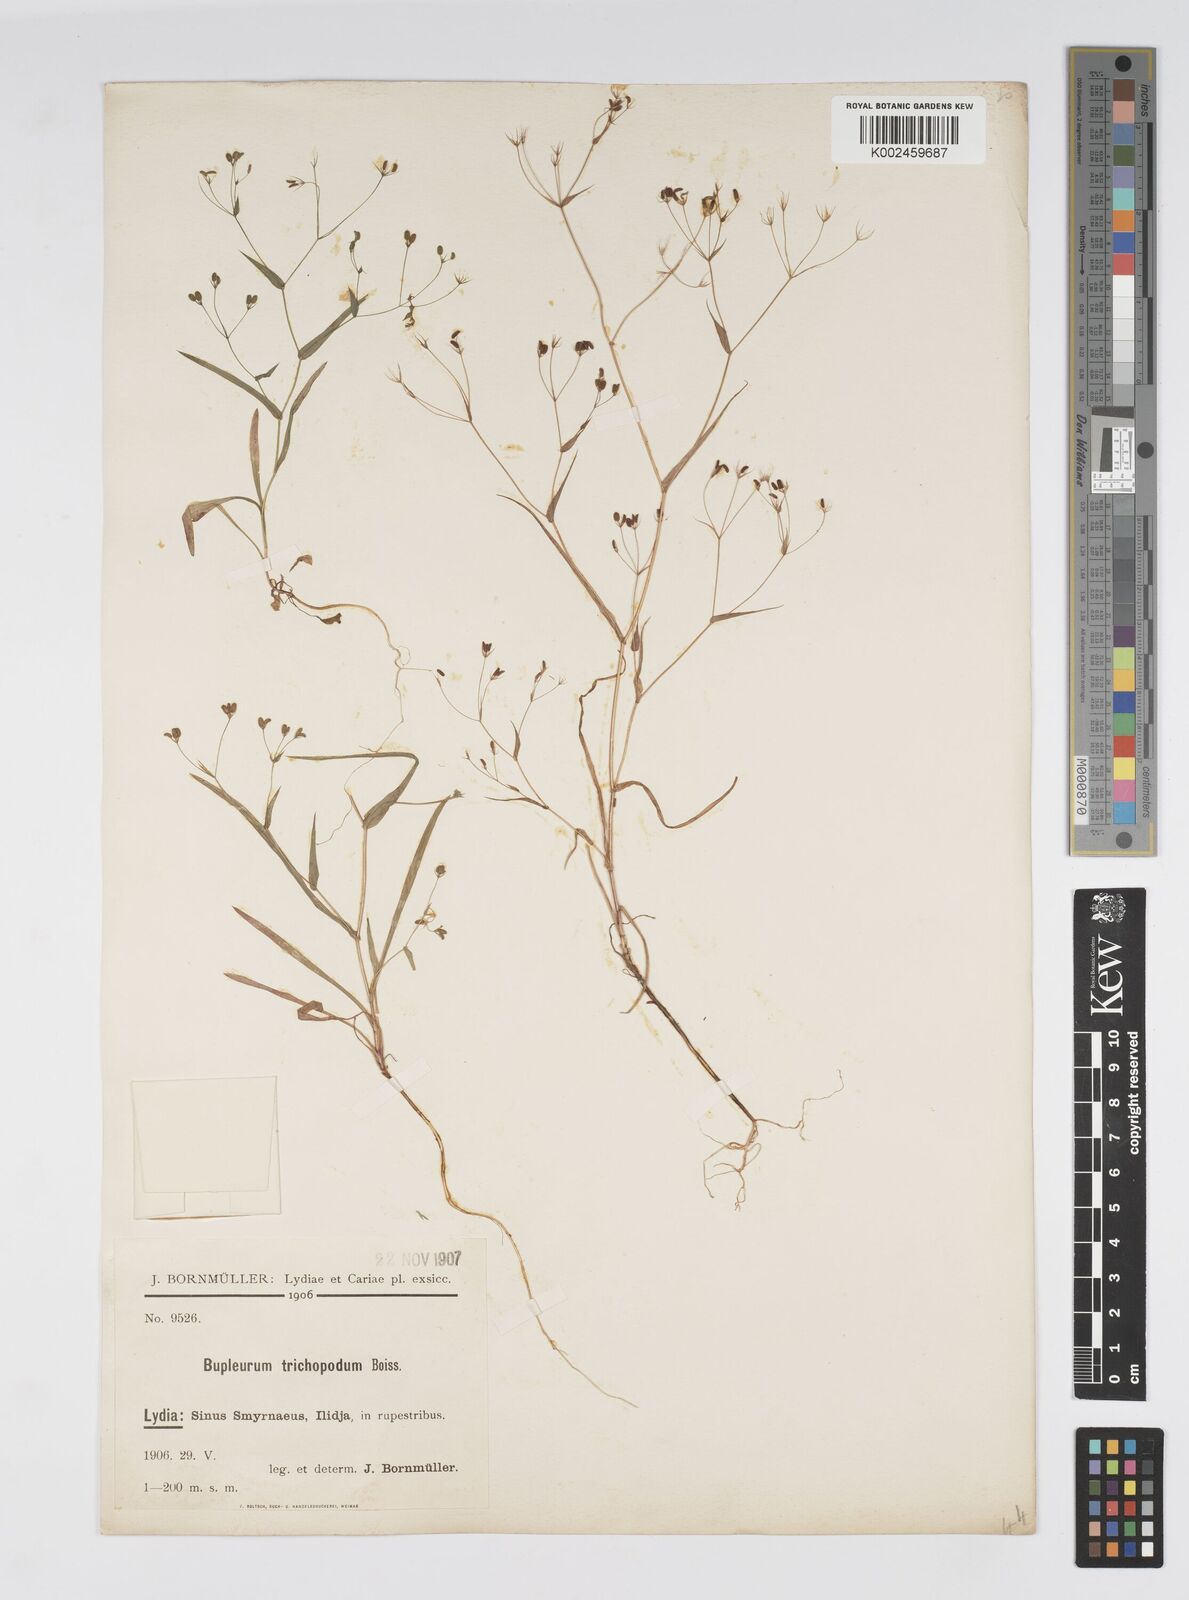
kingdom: Plantae
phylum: Tracheophyta
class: Magnoliopsida
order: Apiales
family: Apiaceae
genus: Bupleurum
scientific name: Bupleurum trichopodum
